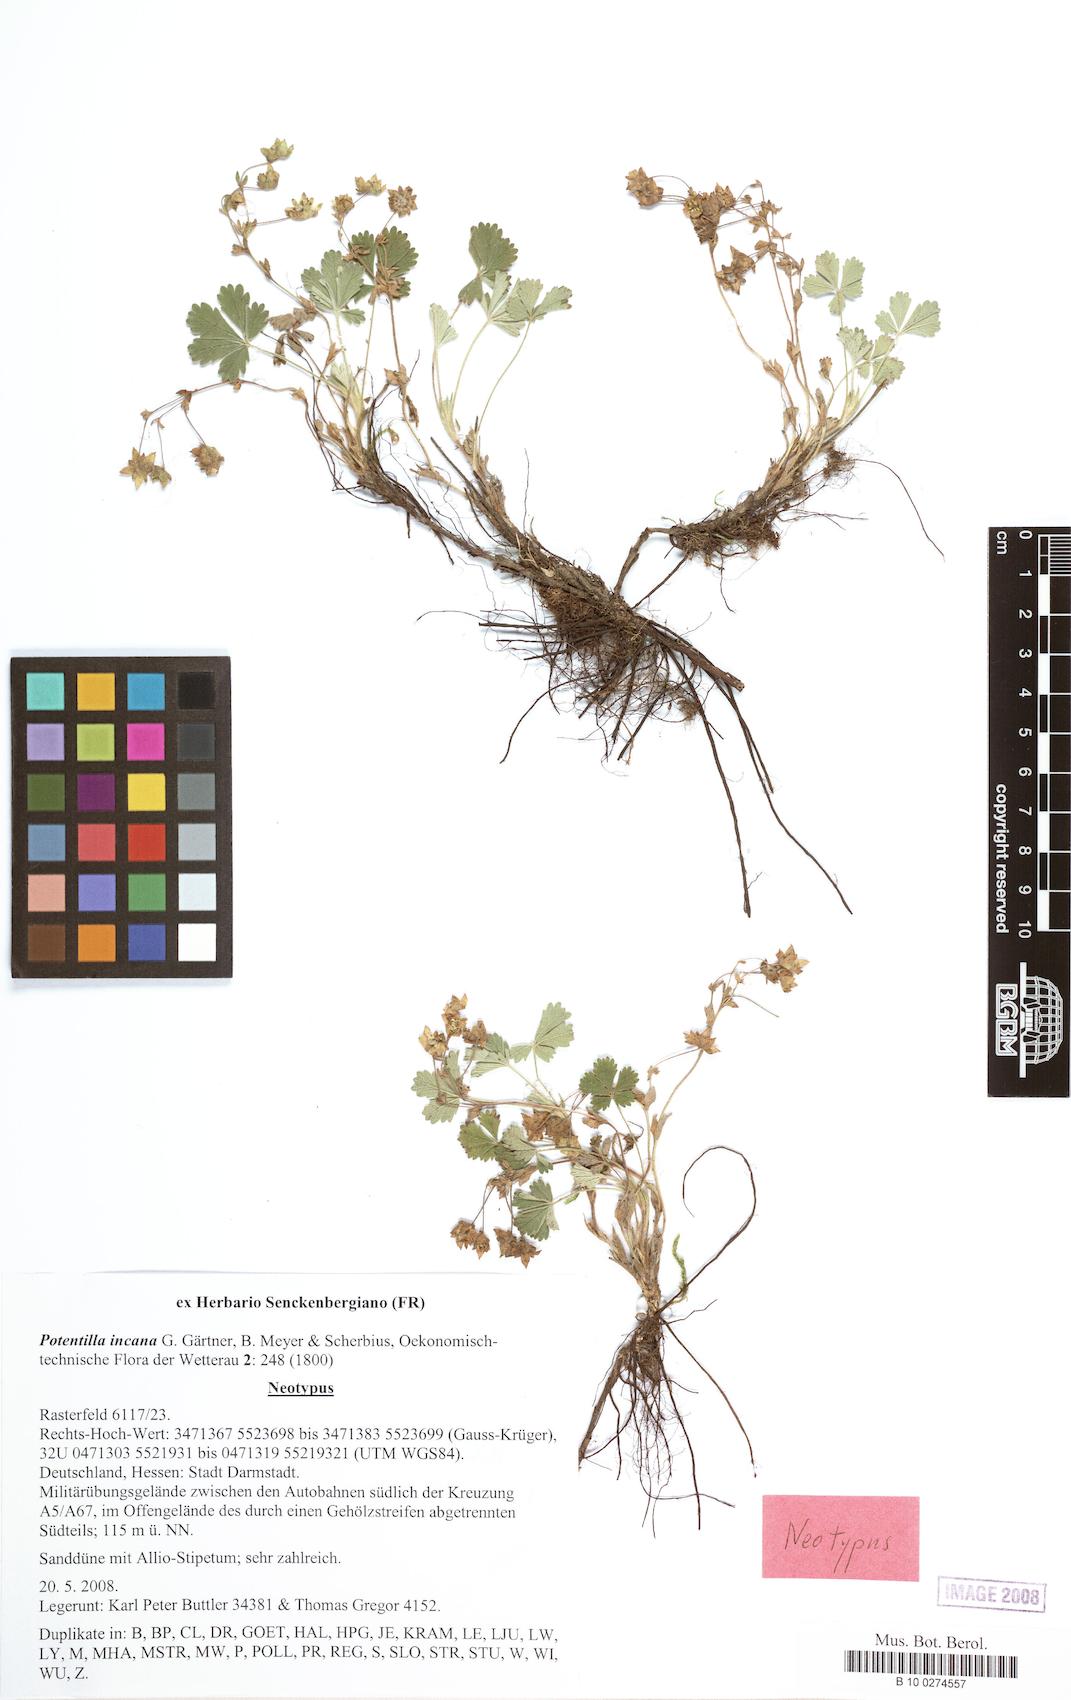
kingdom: Plantae
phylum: Tracheophyta
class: Magnoliopsida
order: Rosales
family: Rosaceae
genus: Potentilla
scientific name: Potentilla cinerea
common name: Ashy cinquefoil
